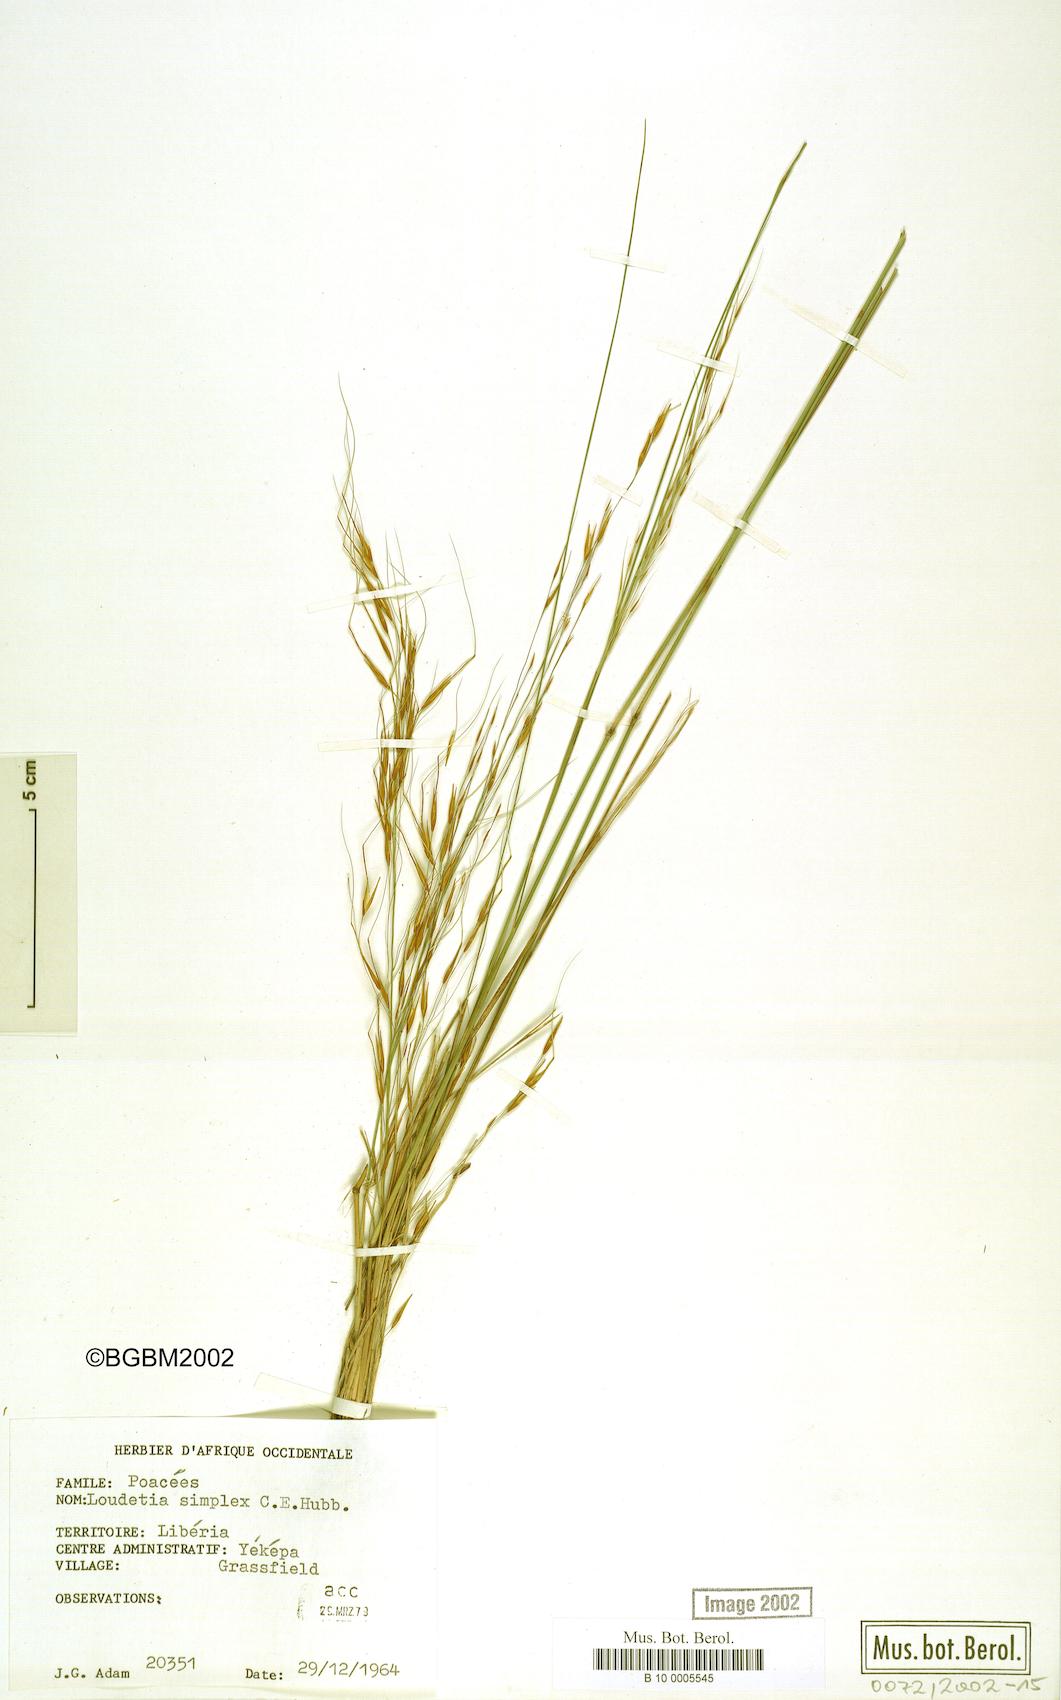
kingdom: Plantae
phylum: Tracheophyta
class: Liliopsida
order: Poales
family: Poaceae
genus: Loudetia
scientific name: Loudetia simplex
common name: Common russet grass
